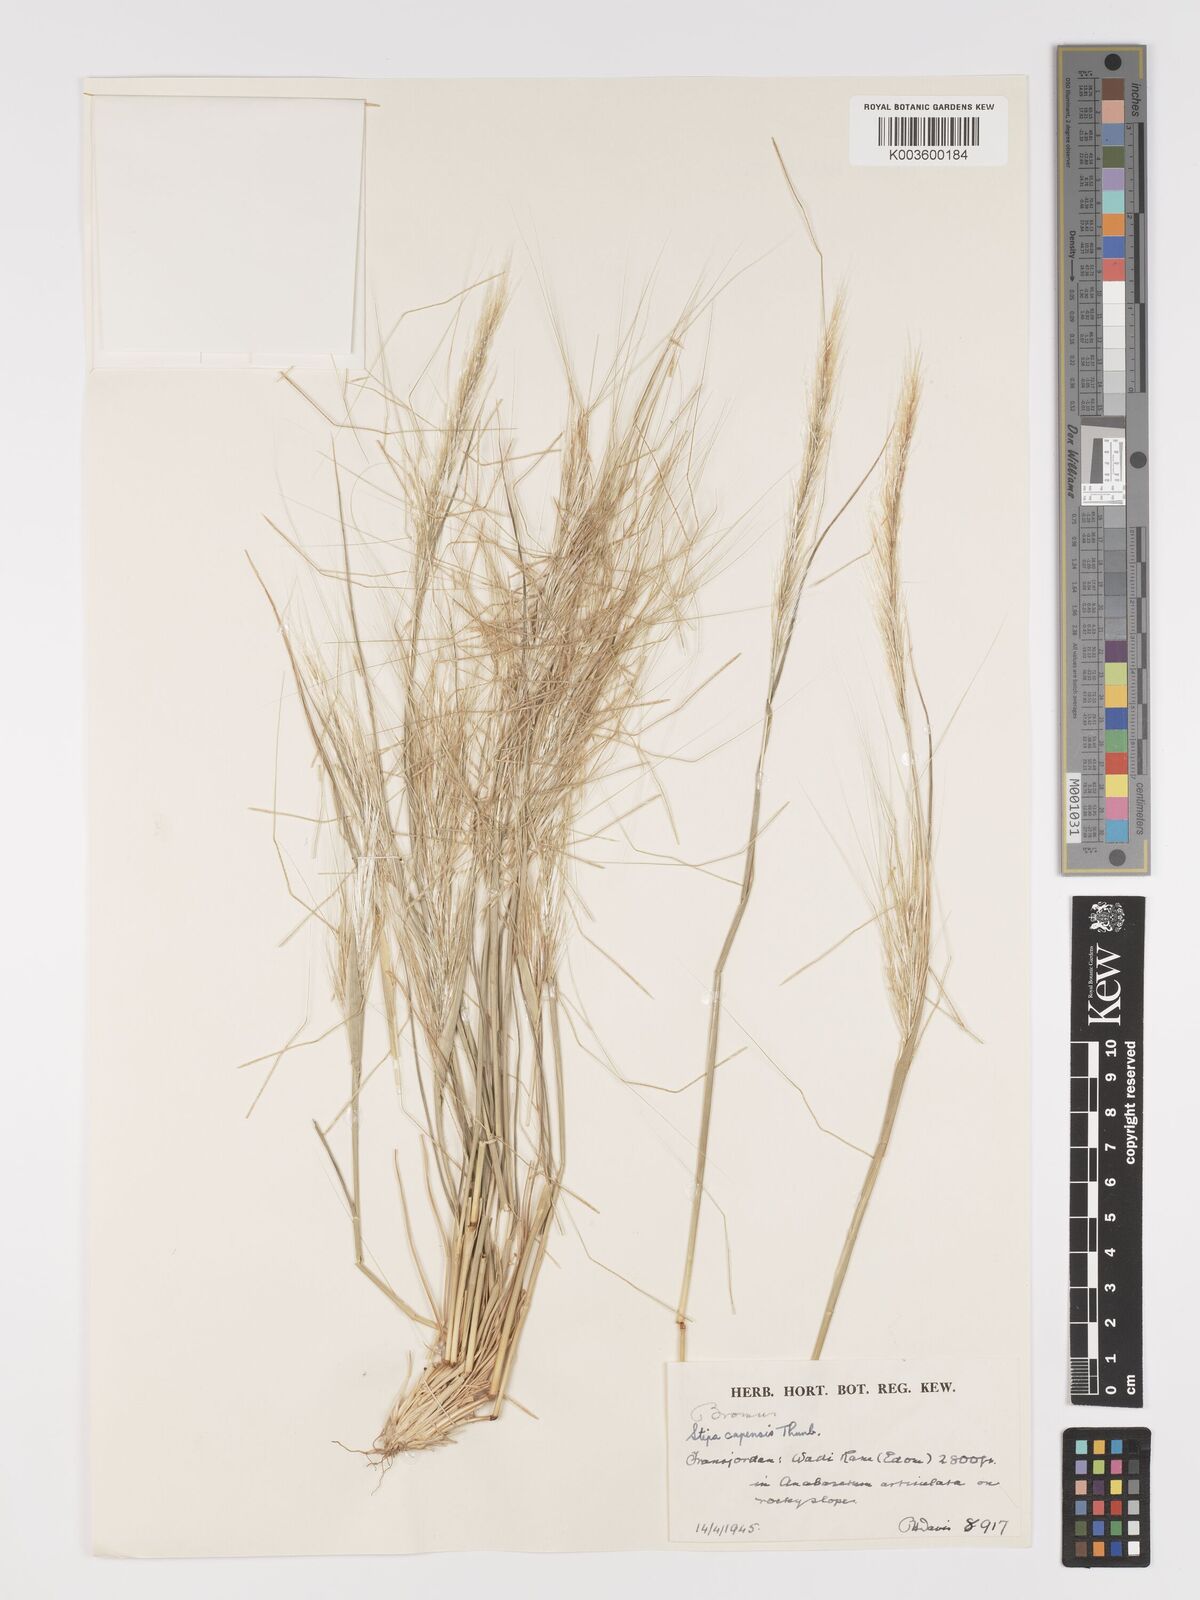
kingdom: Plantae
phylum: Tracheophyta
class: Liliopsida
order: Poales
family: Poaceae
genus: Stipellula
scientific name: Stipellula capensis
